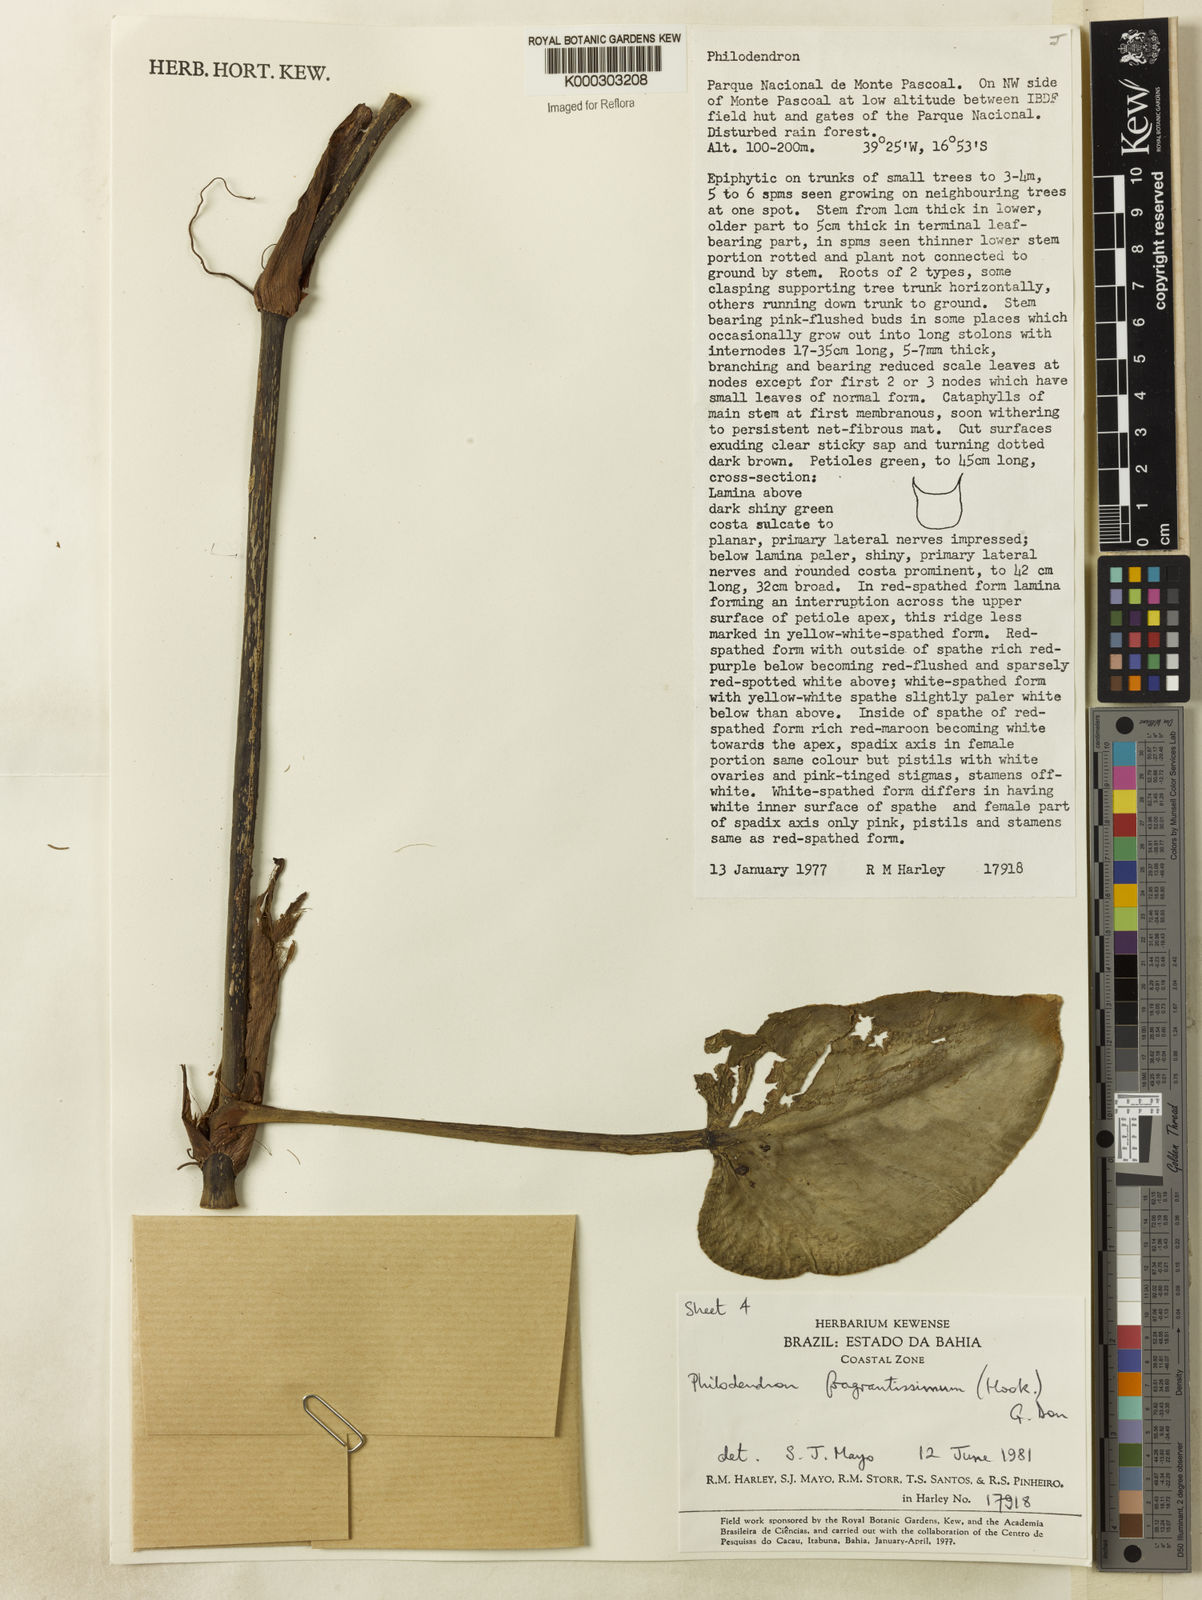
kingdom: Plantae
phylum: Tracheophyta
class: Liliopsida
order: Alismatales
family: Araceae
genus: Philodendron
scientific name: Philodendron fragrantissimum
